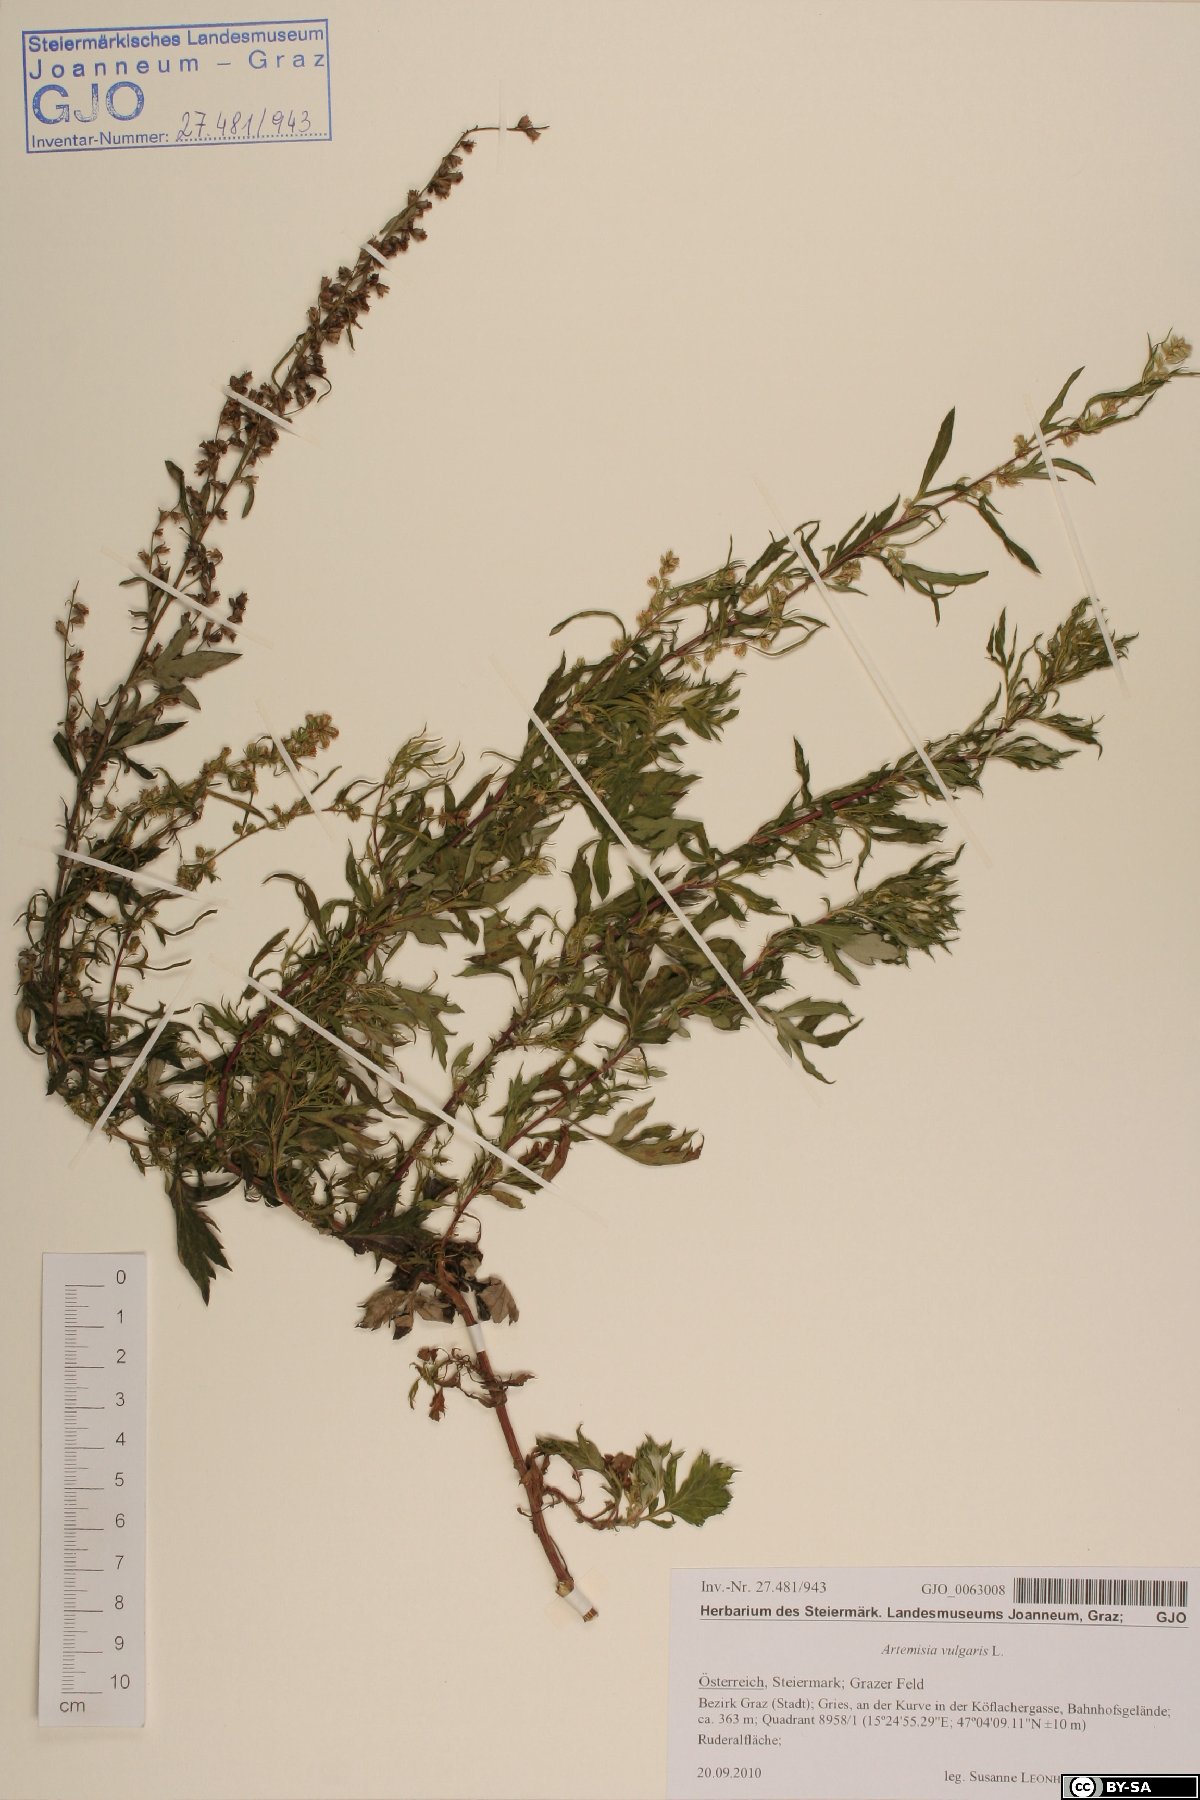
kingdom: Plantae
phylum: Tracheophyta
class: Magnoliopsida
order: Asterales
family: Asteraceae
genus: Artemisia
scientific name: Artemisia vulgaris
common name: Mugwort
